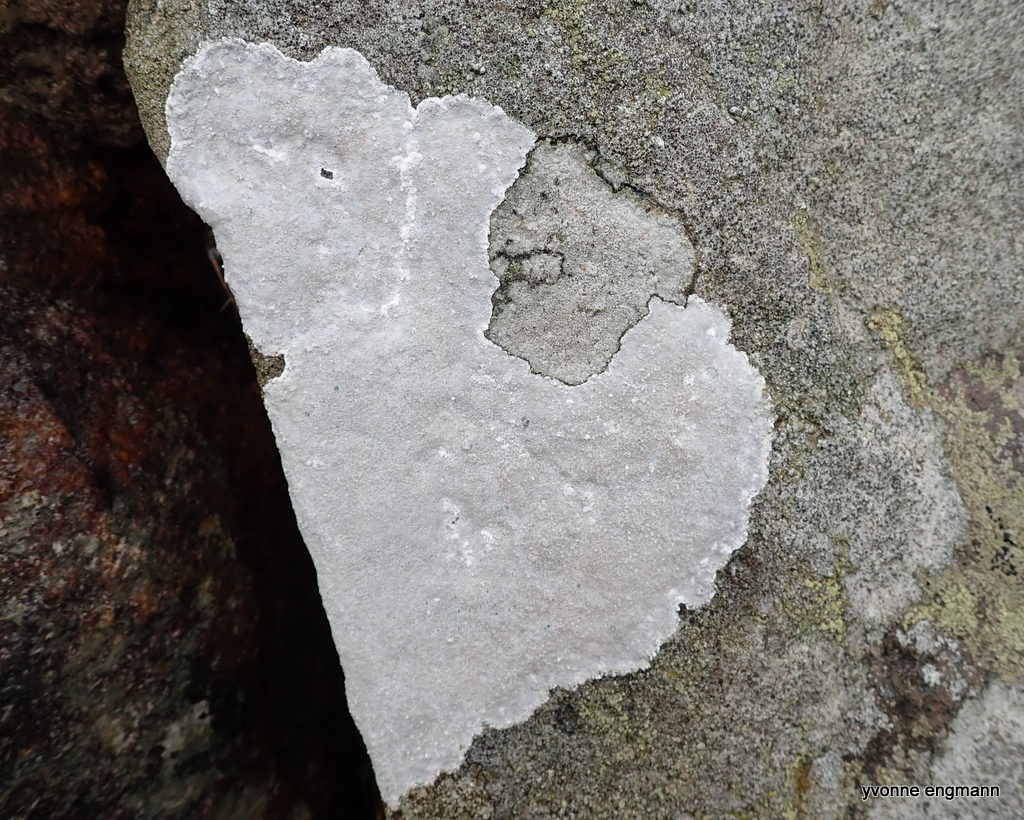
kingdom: Fungi
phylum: Ascomycota
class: Lecanoromycetes
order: Lecanorales
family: Lecanoraceae
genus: Glaucomaria
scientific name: Glaucomaria rupicola
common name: stengærde-kantskivelav
